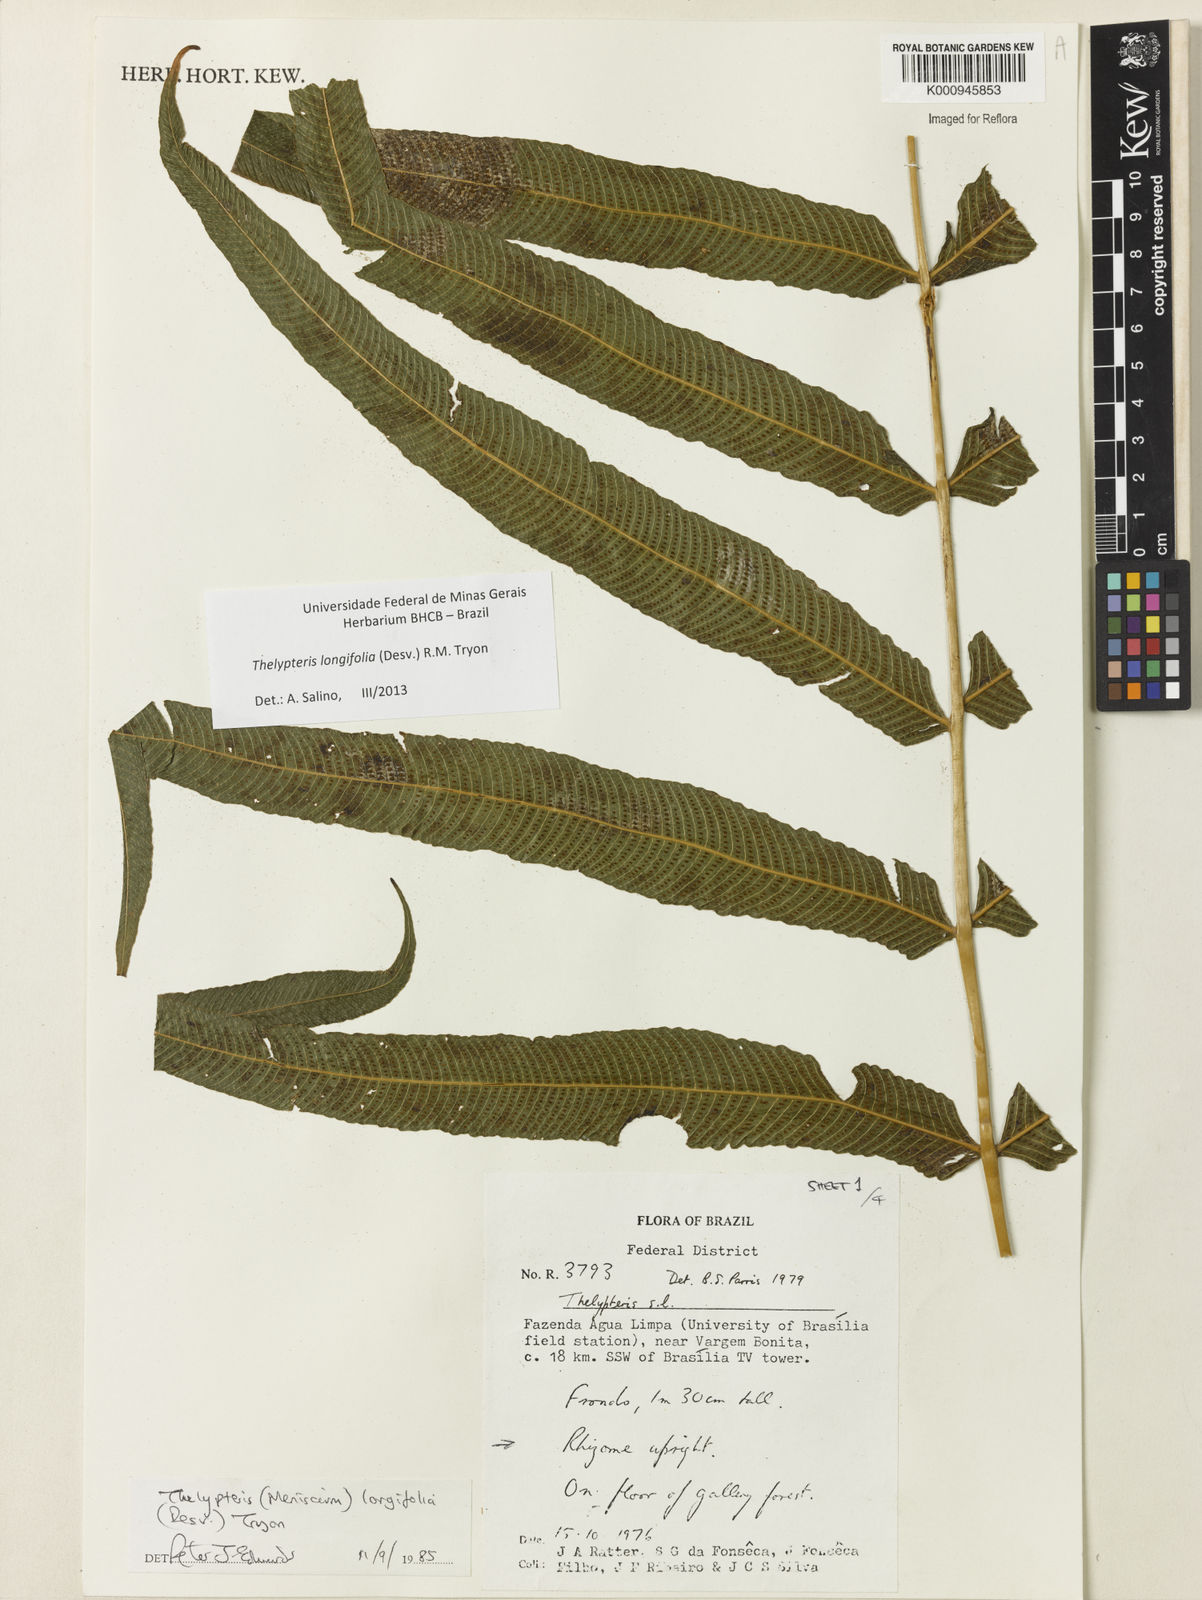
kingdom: Plantae
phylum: Tracheophyta
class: Polypodiopsida
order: Polypodiales
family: Thelypteridaceae
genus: Meniscium
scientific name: Meniscium longifolium
